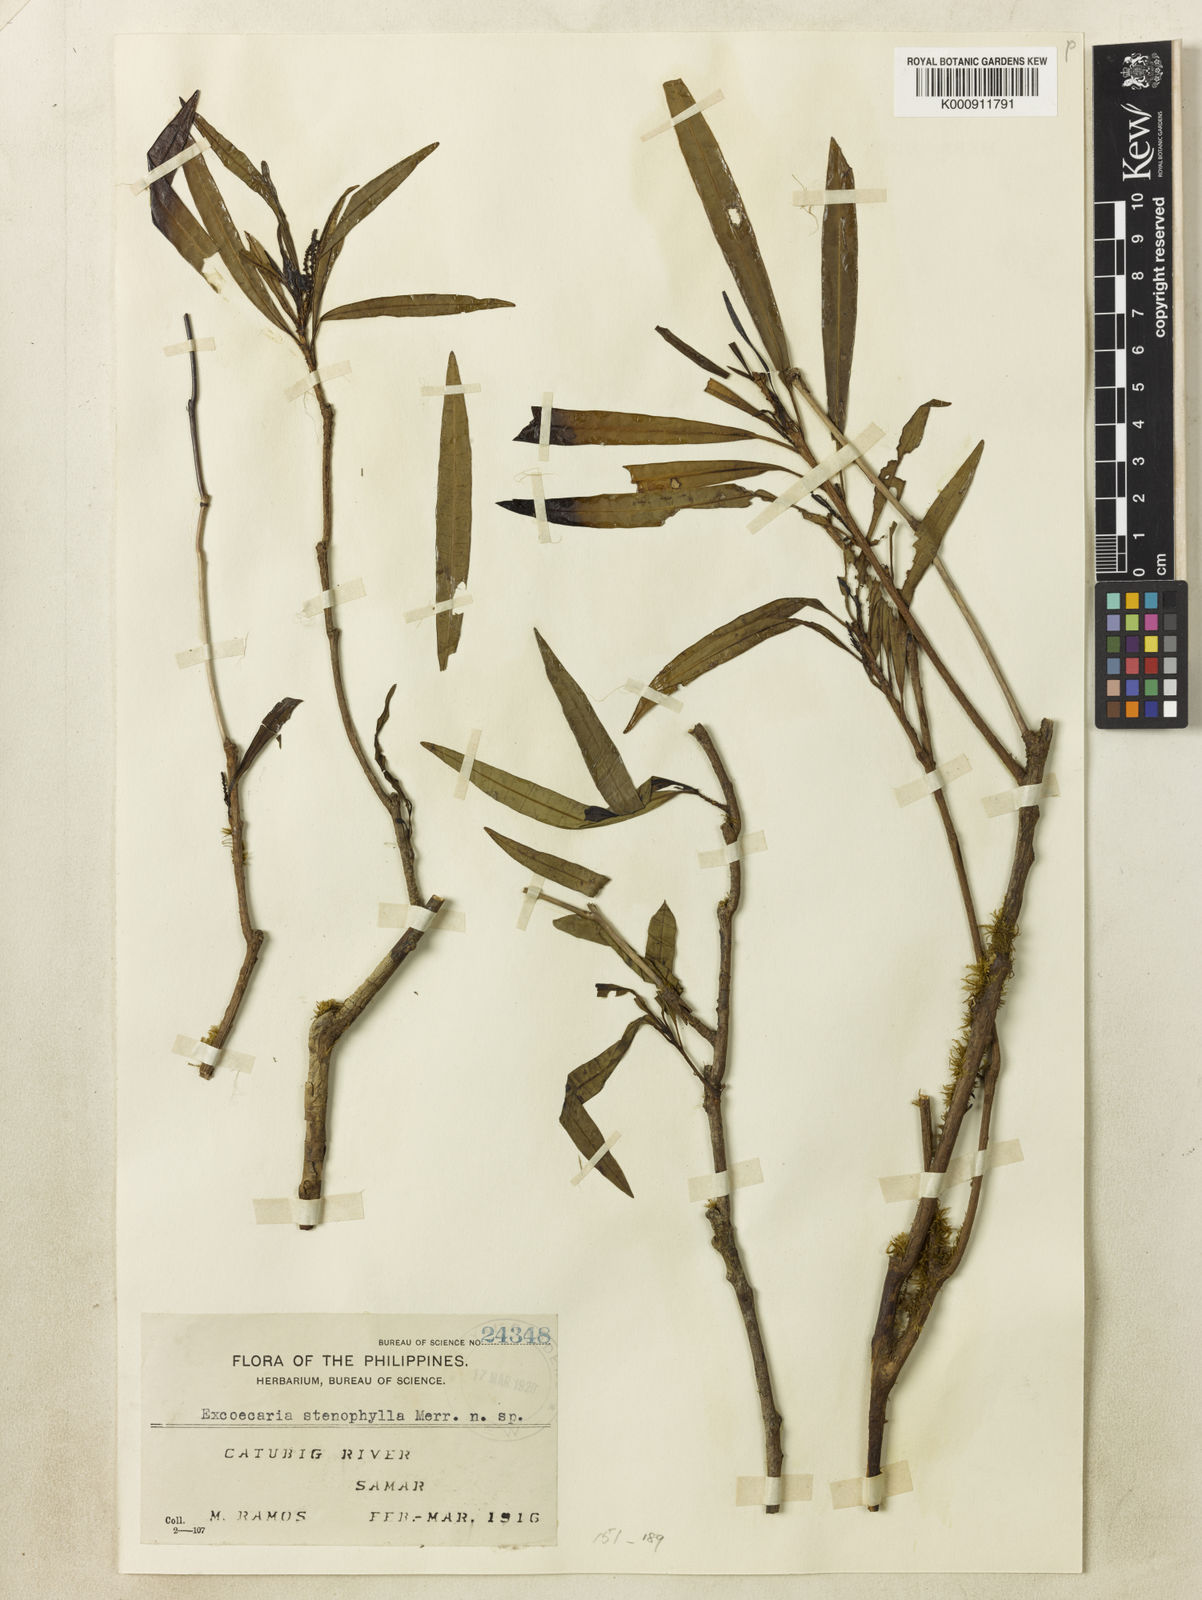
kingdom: Plantae
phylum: Tracheophyta
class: Magnoliopsida
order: Malpighiales
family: Euphorbiaceae
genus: Excoecaria
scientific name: Excoecaria stenophylla
